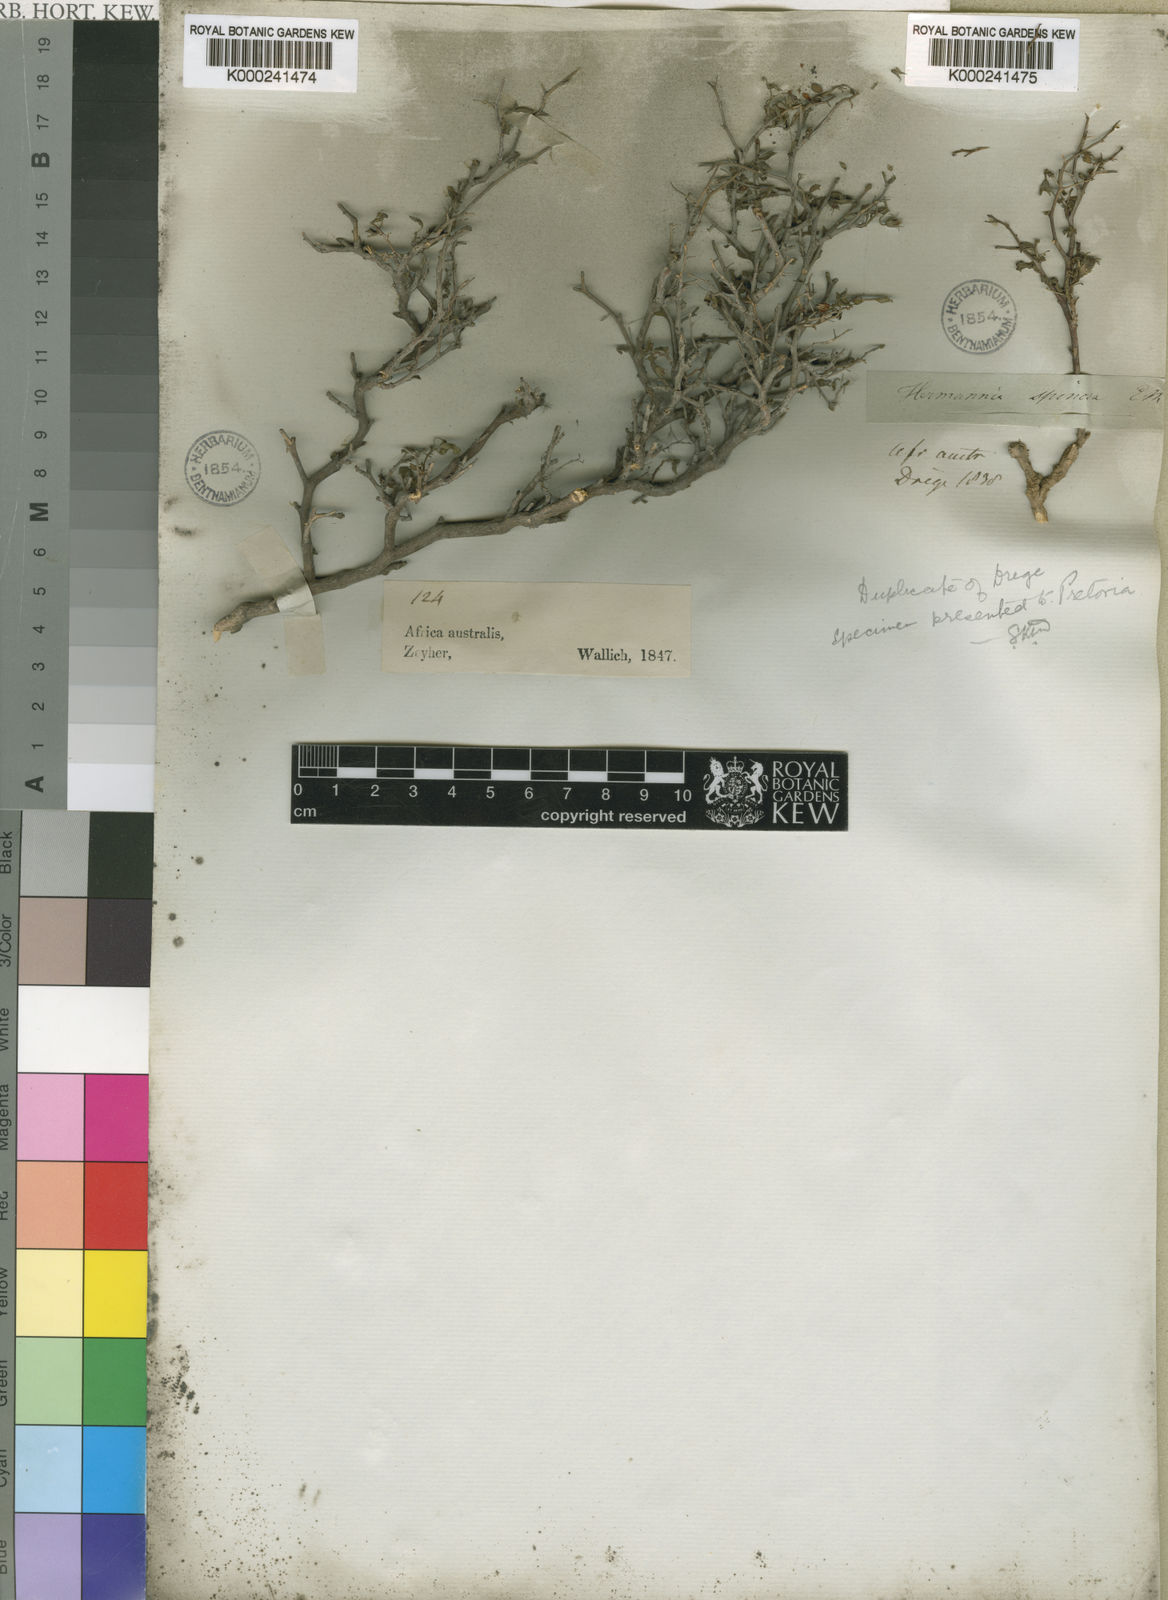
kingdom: Plantae
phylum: Tracheophyta
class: Magnoliopsida
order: Malvales
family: Malvaceae
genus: Hermannia
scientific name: Hermannia spinosa
